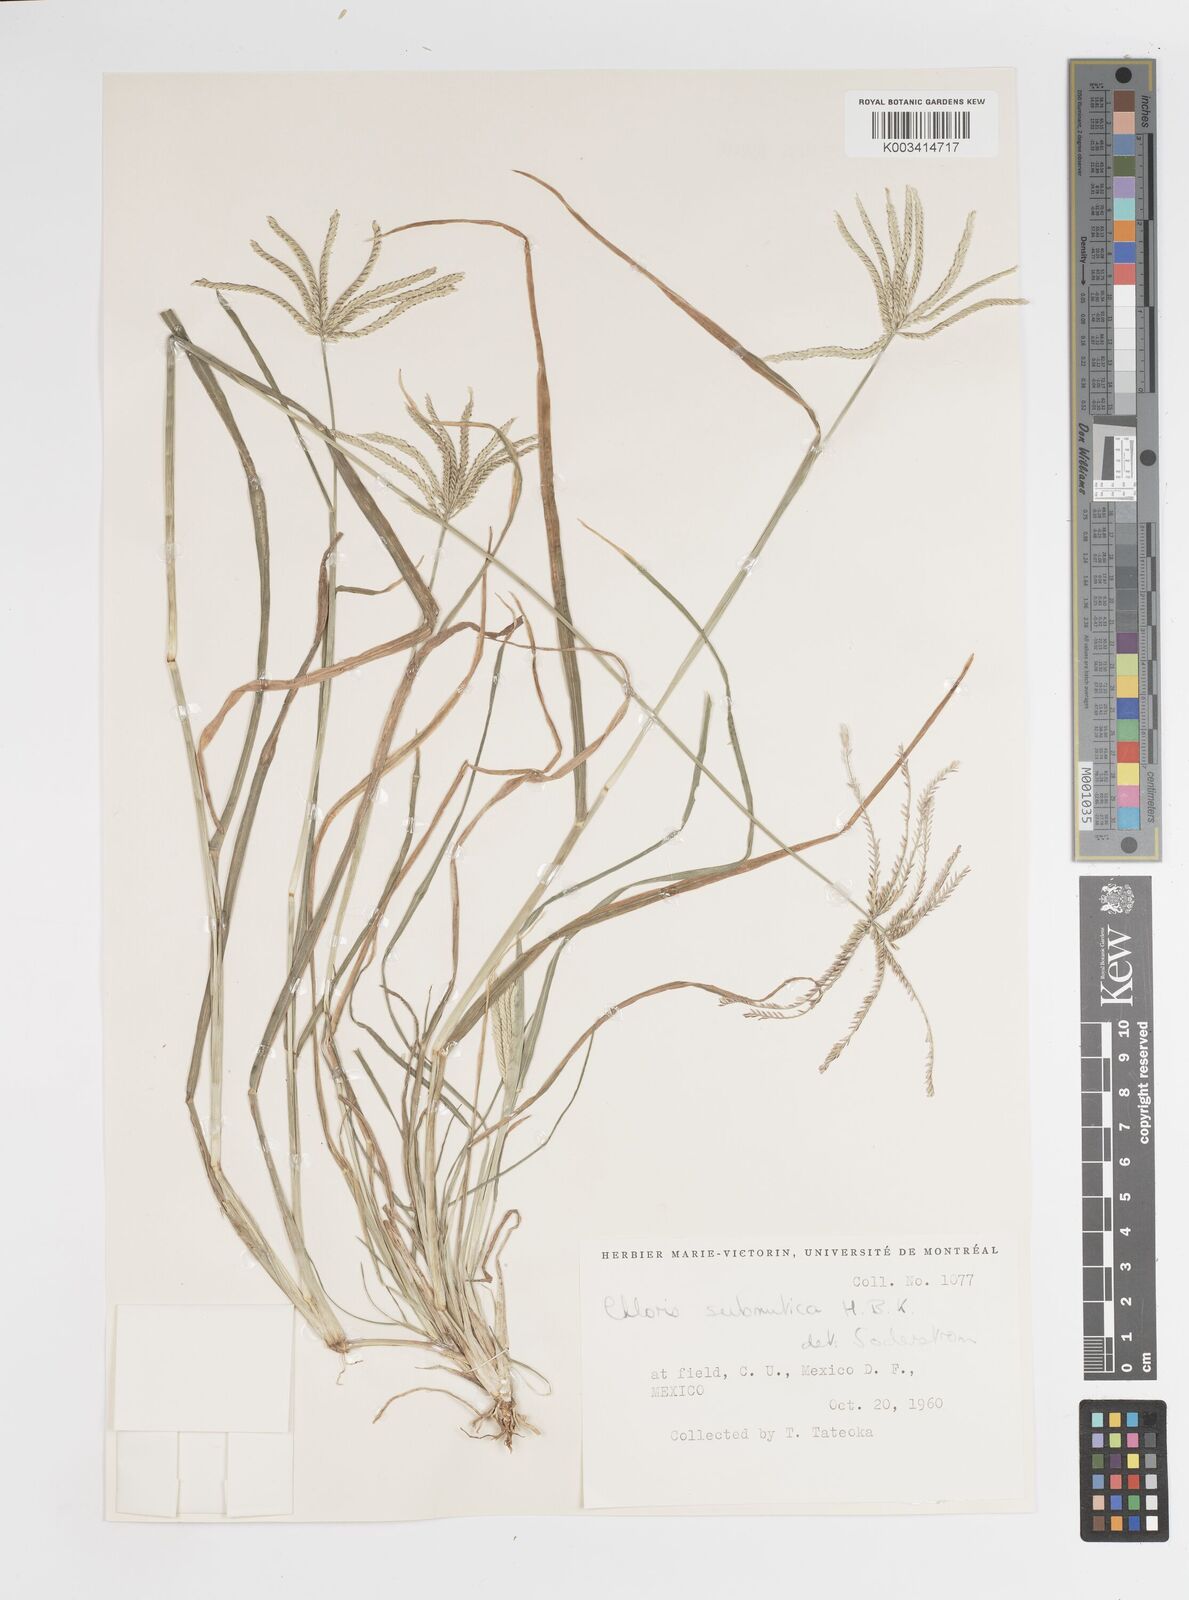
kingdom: Plantae
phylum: Tracheophyta
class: Liliopsida
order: Poales
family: Poaceae
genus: Chloris
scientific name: Chloris submutica
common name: Mexican windmill grass
